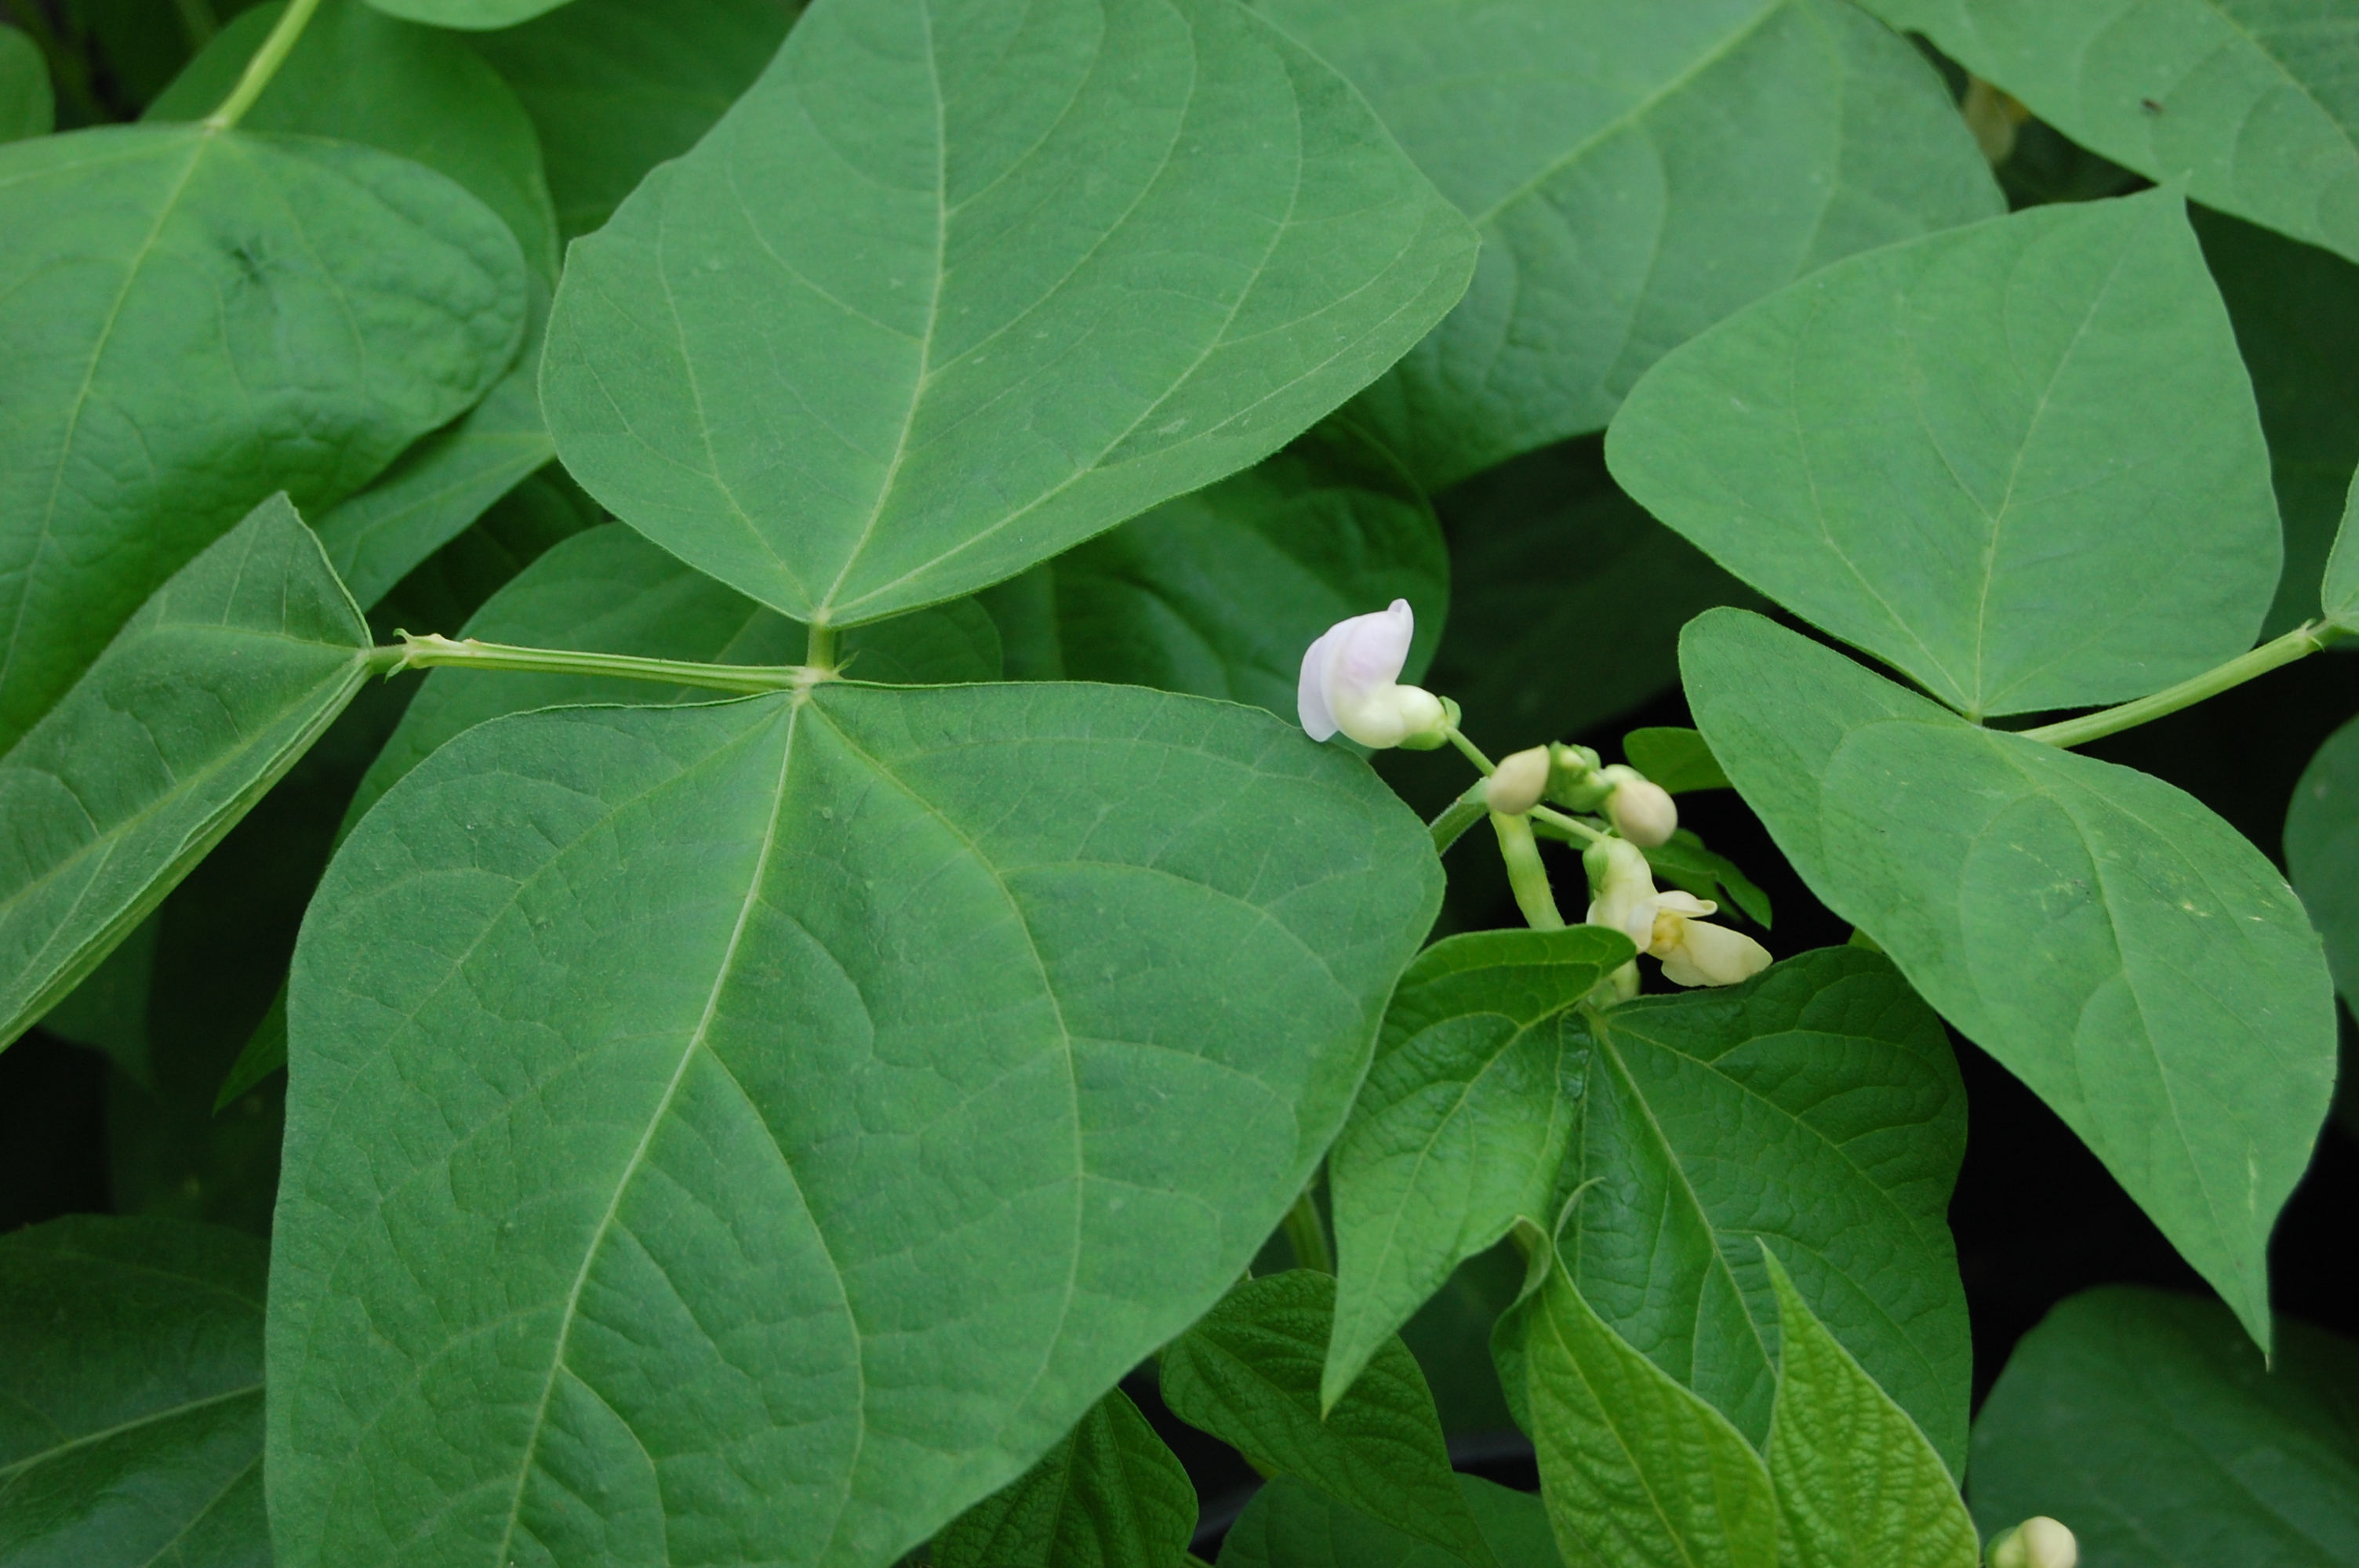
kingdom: Plantae
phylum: Tracheophyta
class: Magnoliopsida
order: Fabales
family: Fabaceae
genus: Phaseolus
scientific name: Phaseolus vulgaris
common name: Bean
